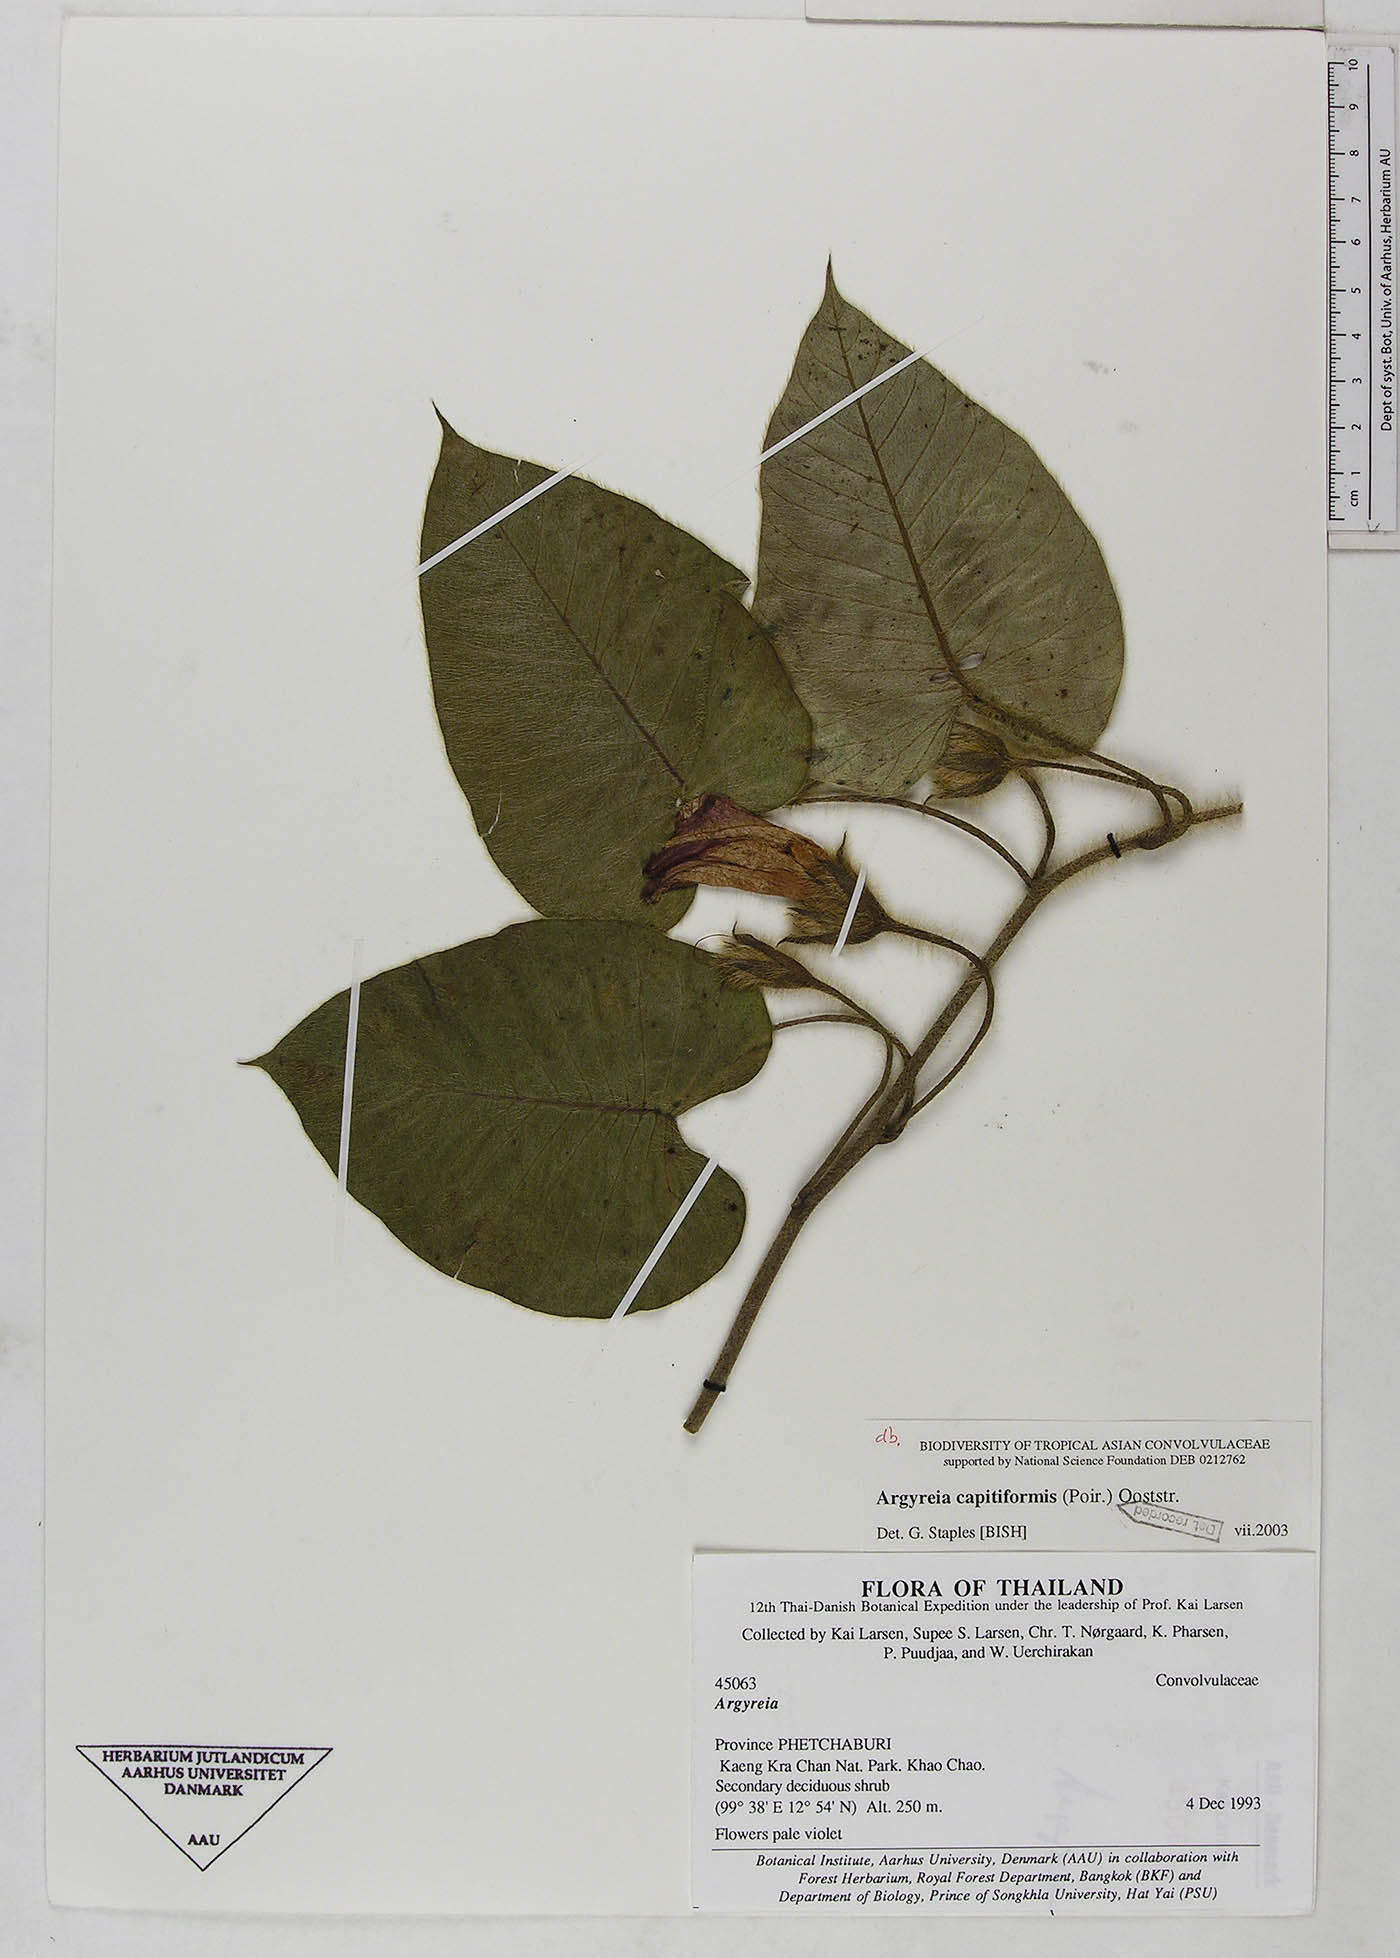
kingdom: Plantae
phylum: Tracheophyta
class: Magnoliopsida
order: Solanales
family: Convolvulaceae
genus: Argyreia
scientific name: Argyreia capitiformis
